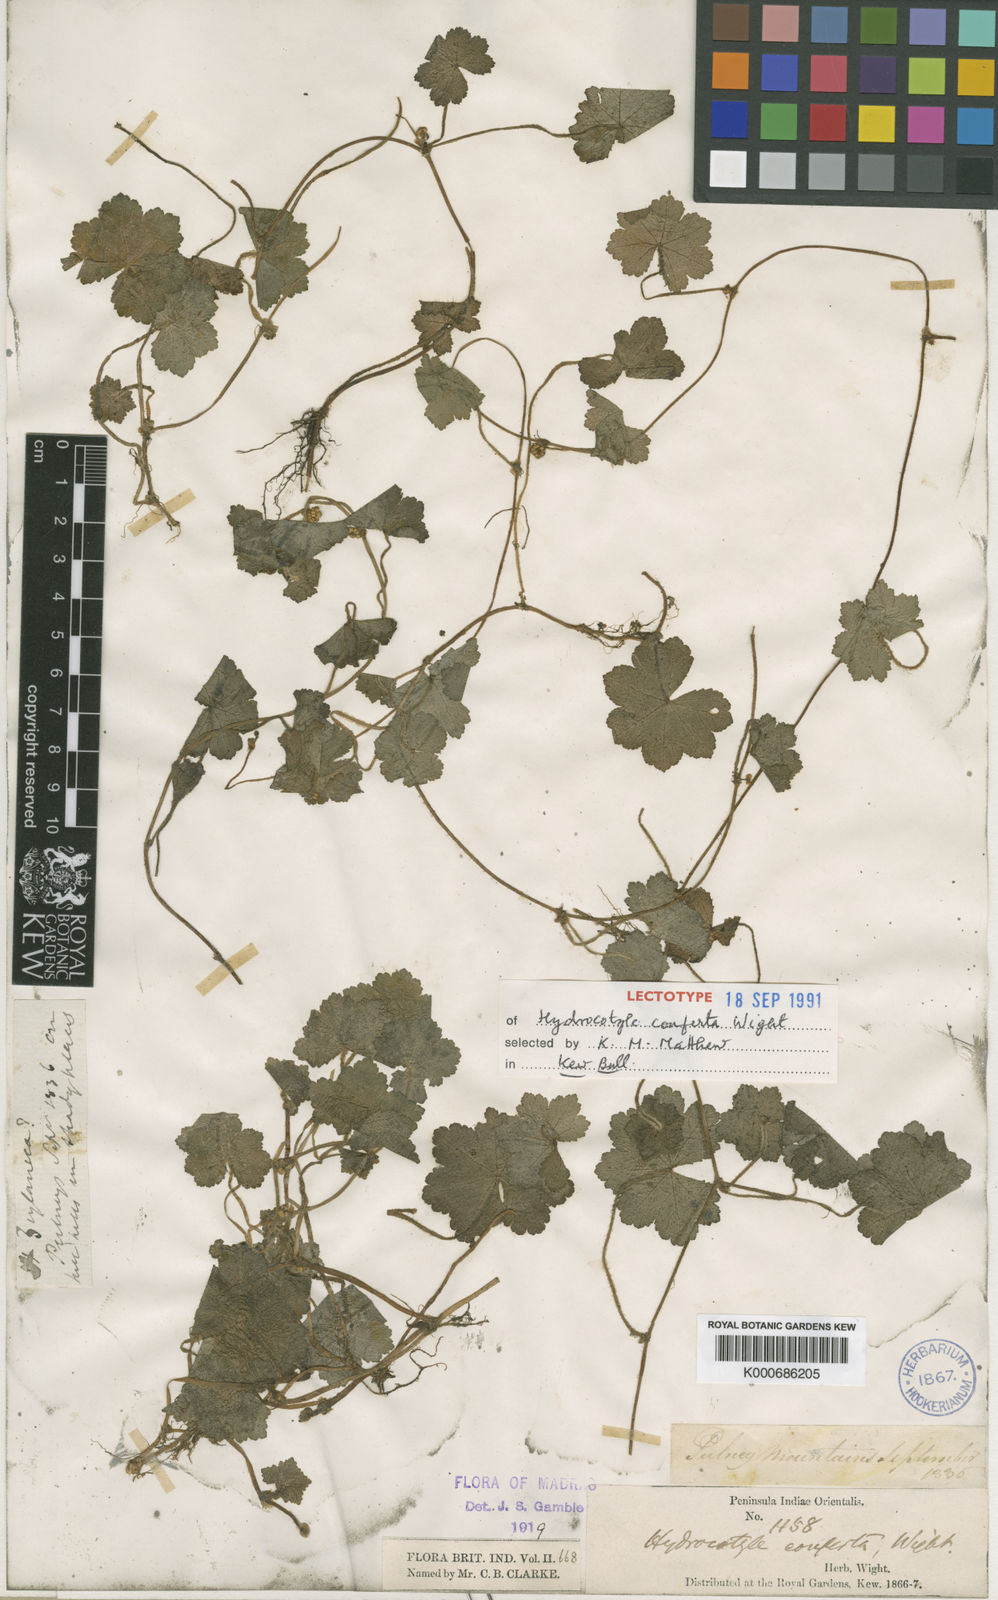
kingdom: Plantae
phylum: Tracheophyta
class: Magnoliopsida
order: Apiales
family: Araliaceae
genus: Hydrocotyle
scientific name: Hydrocotyle pseudoconferta
